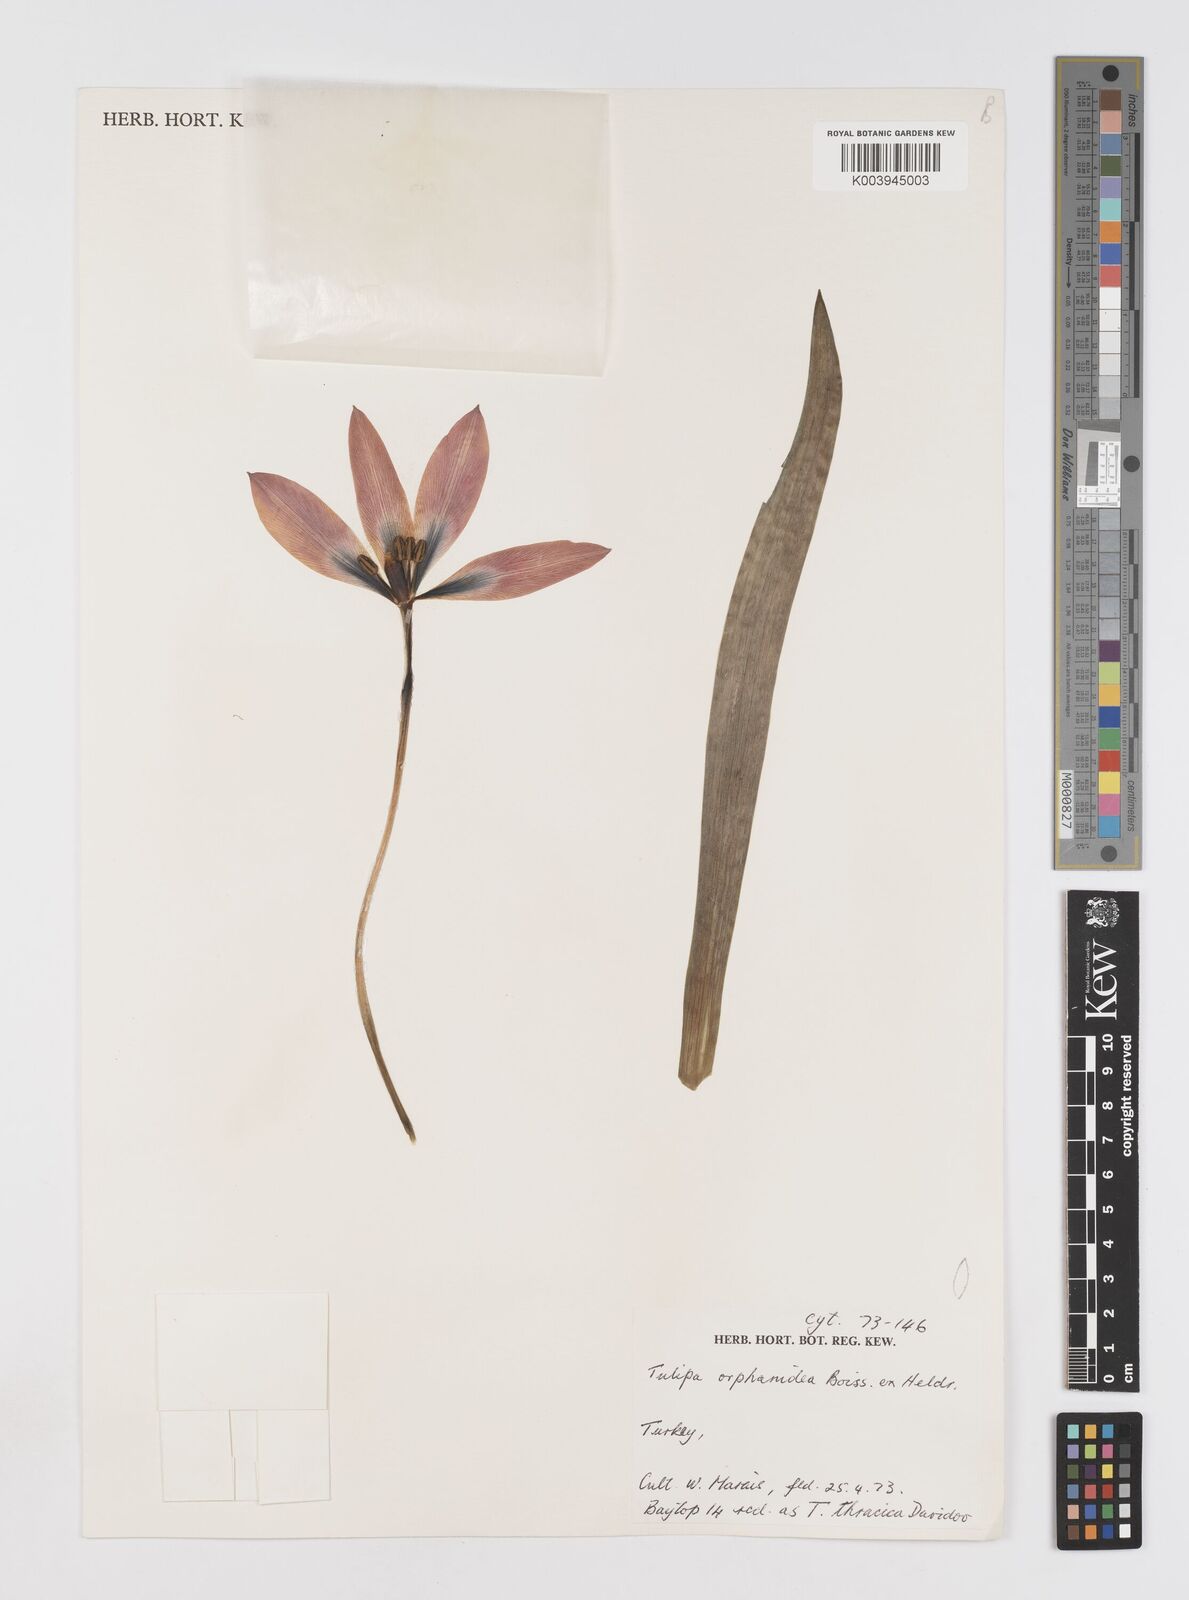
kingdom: Plantae
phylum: Tracheophyta
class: Liliopsida
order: Liliales
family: Liliaceae
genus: Tulipa
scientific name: Tulipa orphanidea
